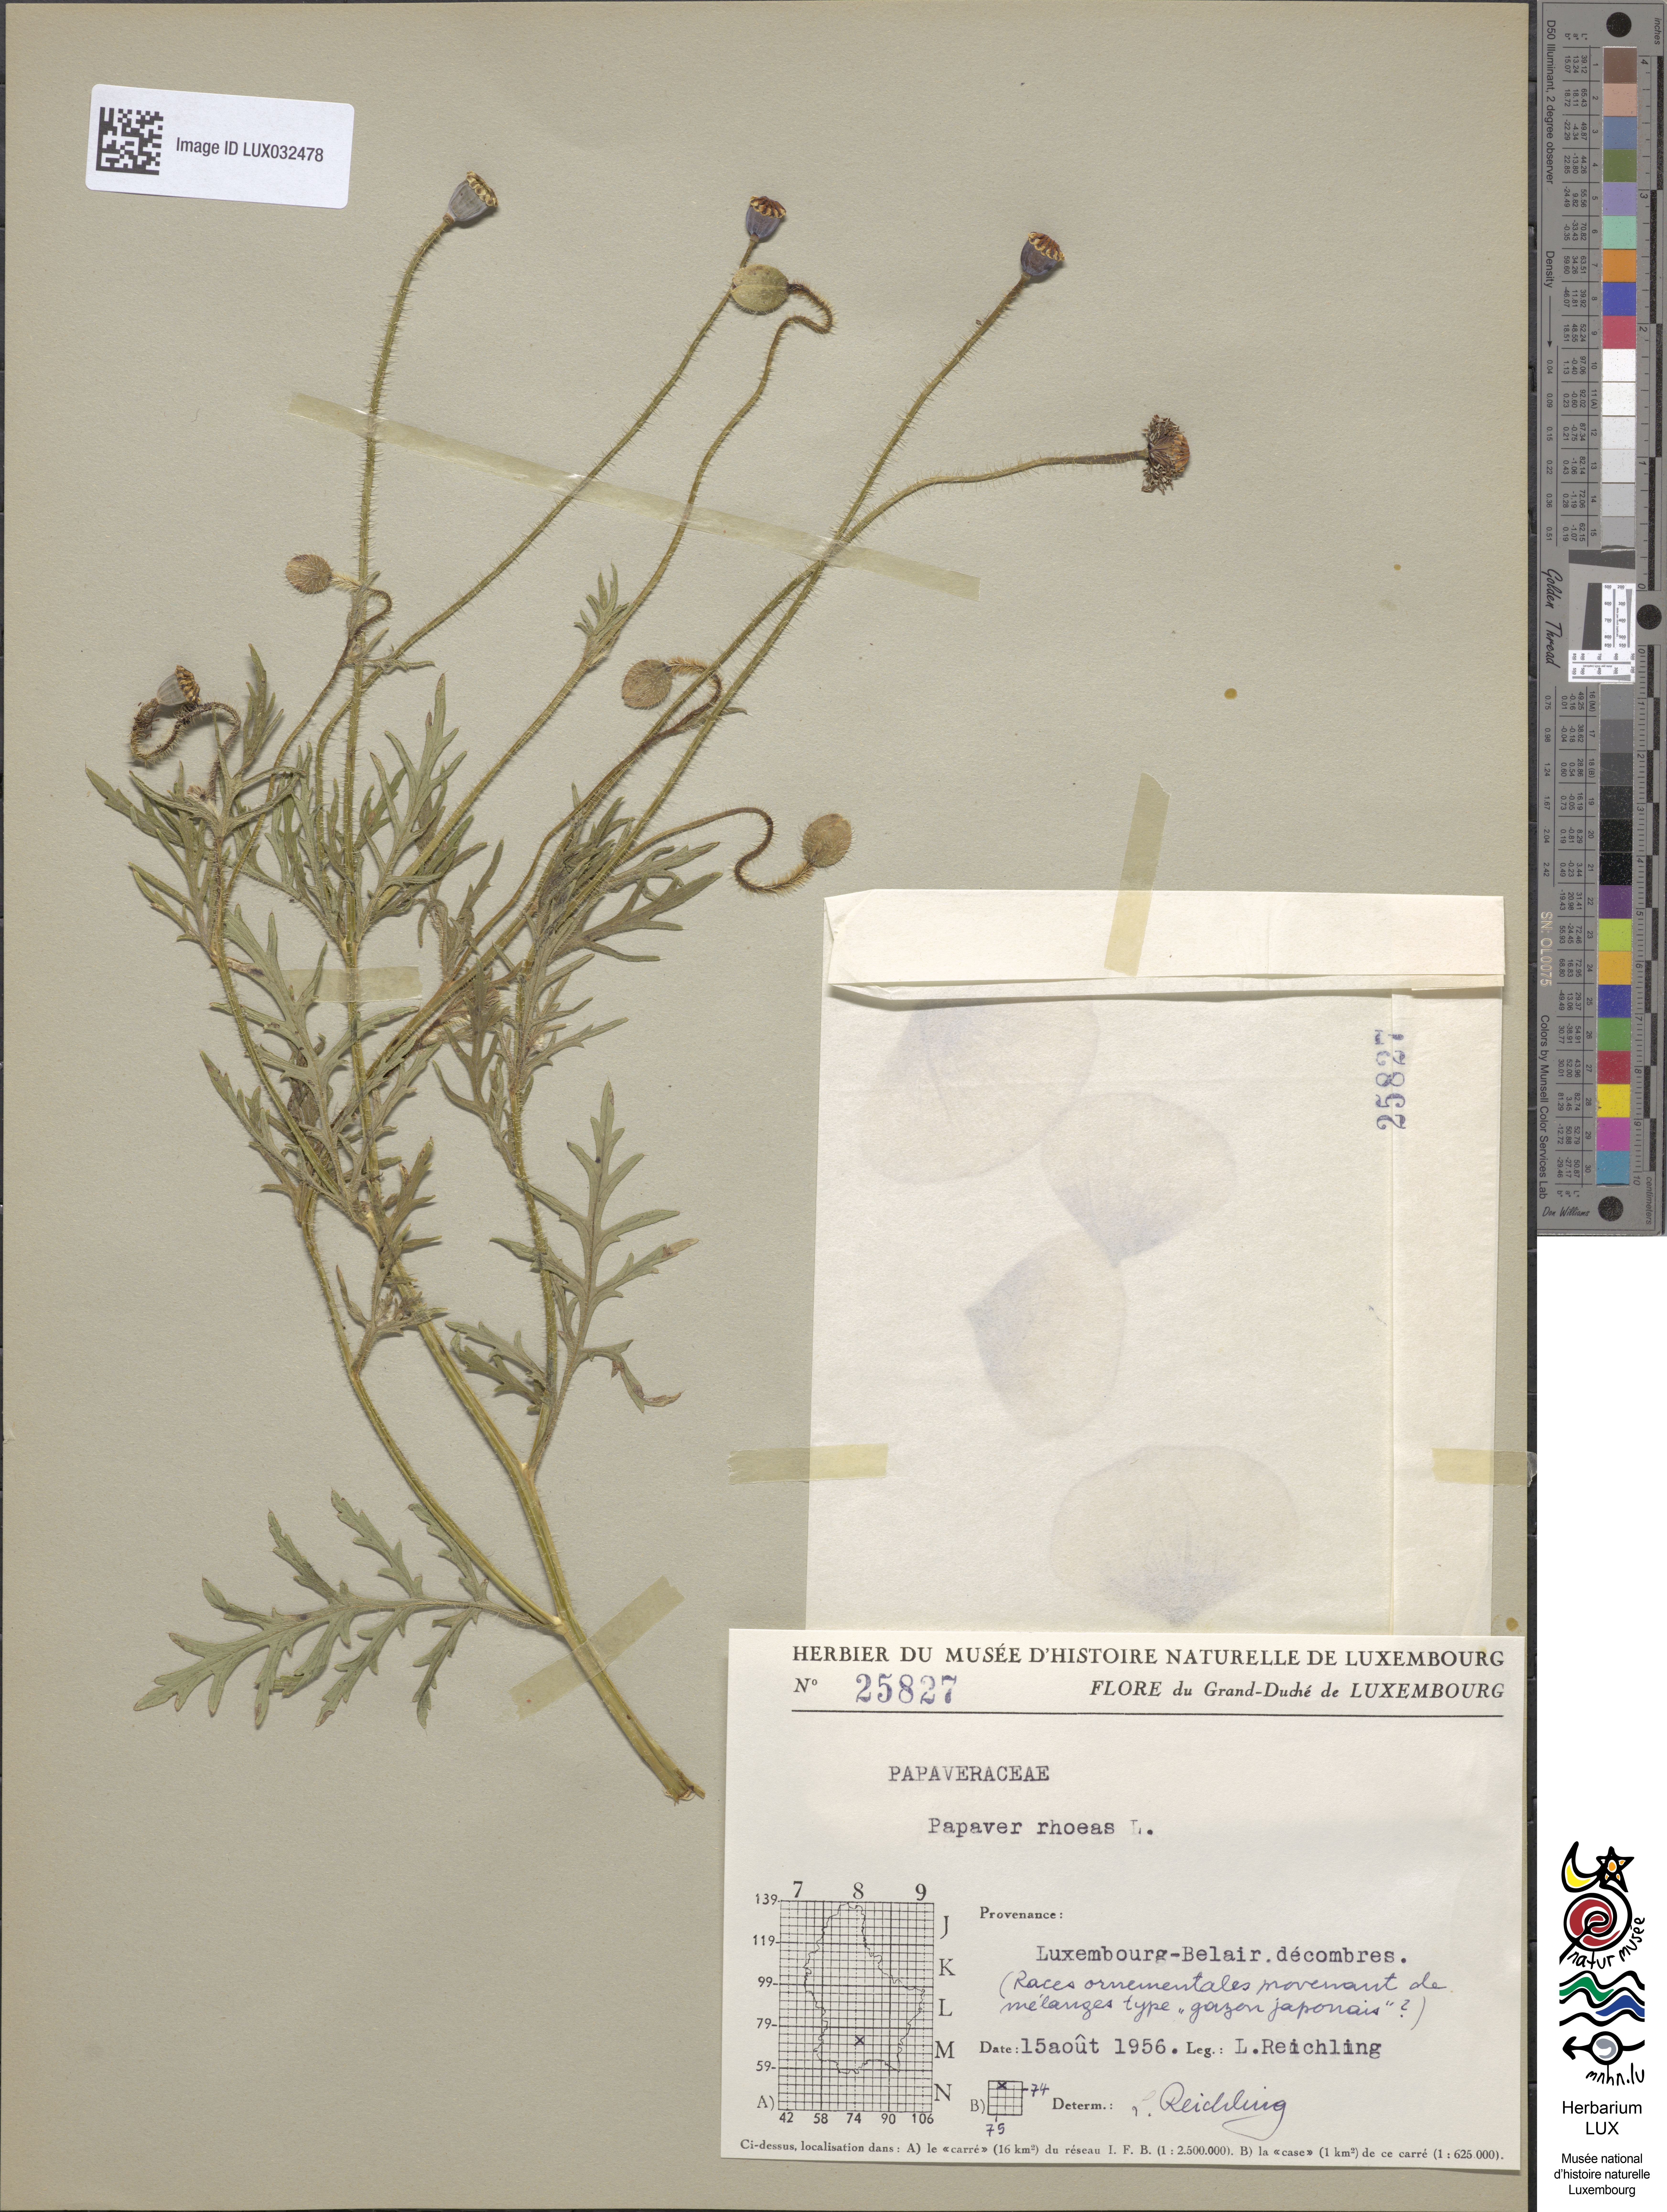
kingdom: Plantae
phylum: Tracheophyta
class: Magnoliopsida
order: Ranunculales
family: Papaveraceae
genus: Papaver
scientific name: Papaver rhoeas
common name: Corn poppy
